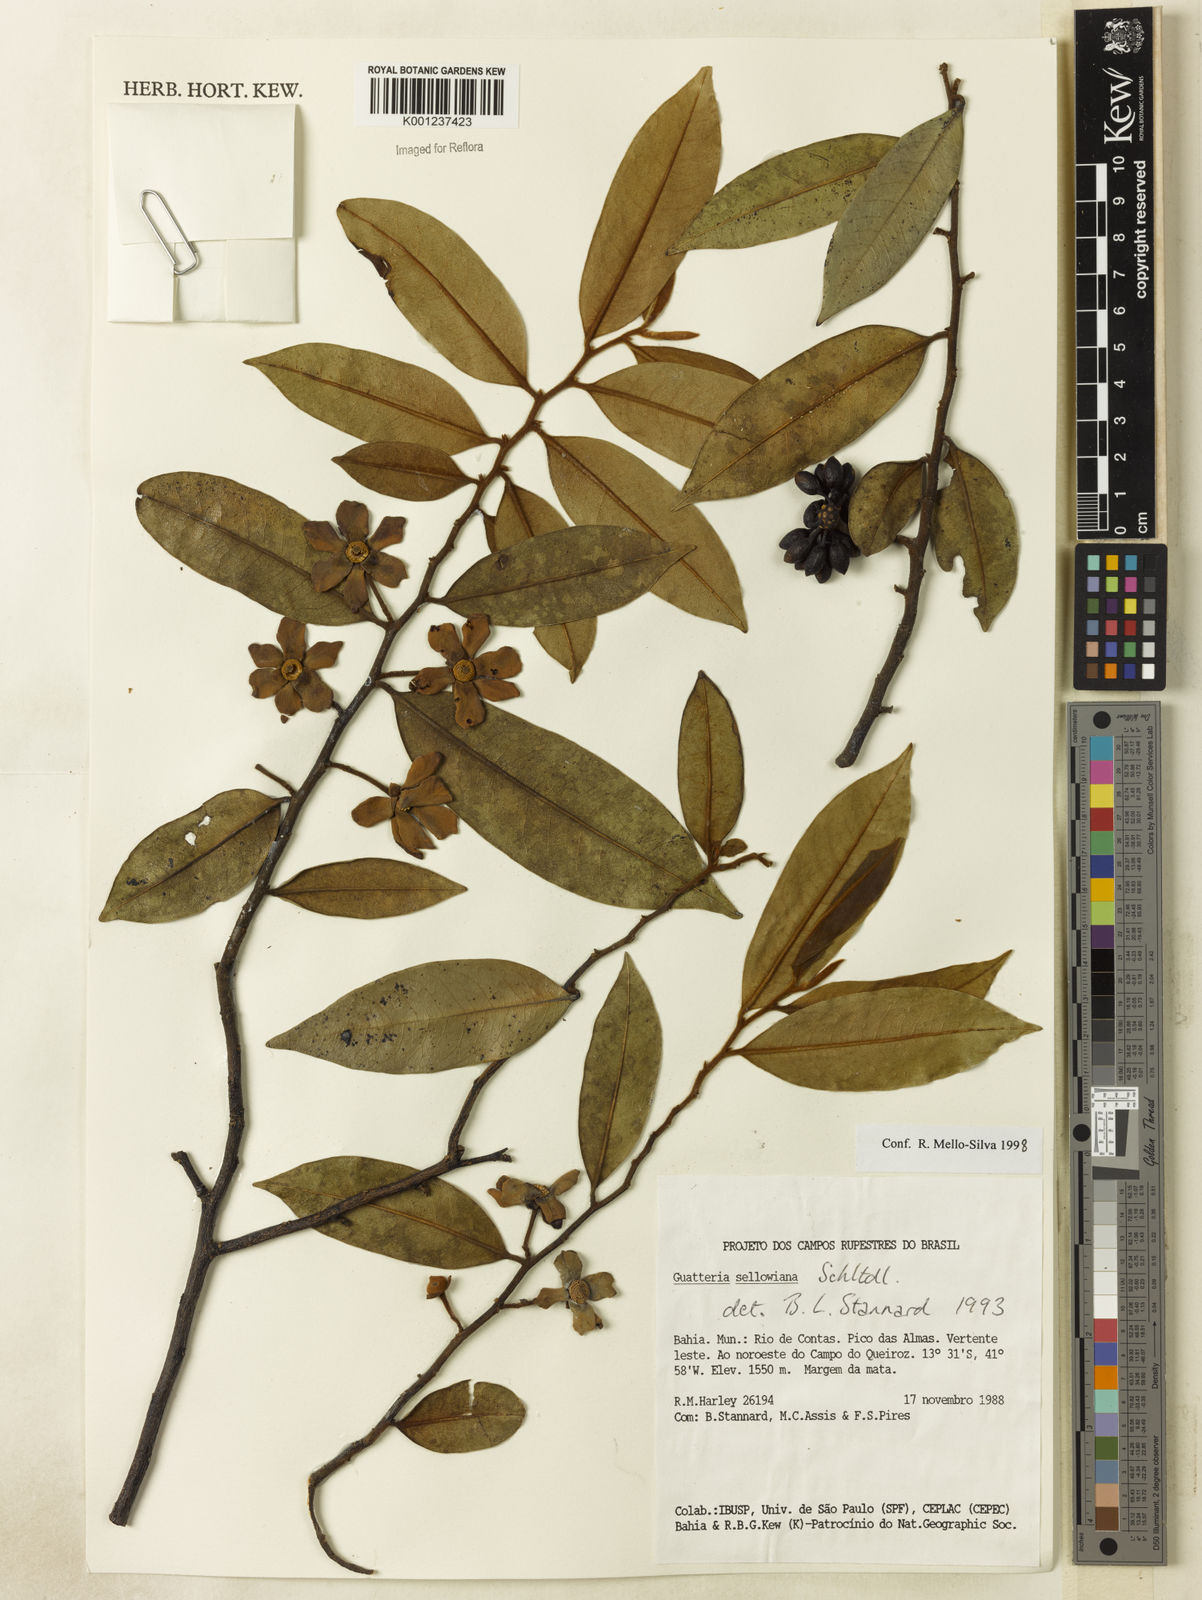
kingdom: Plantae
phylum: Tracheophyta
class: Magnoliopsida
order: Magnoliales
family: Annonaceae
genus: Guatteria
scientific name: Guatteria sellowiana
